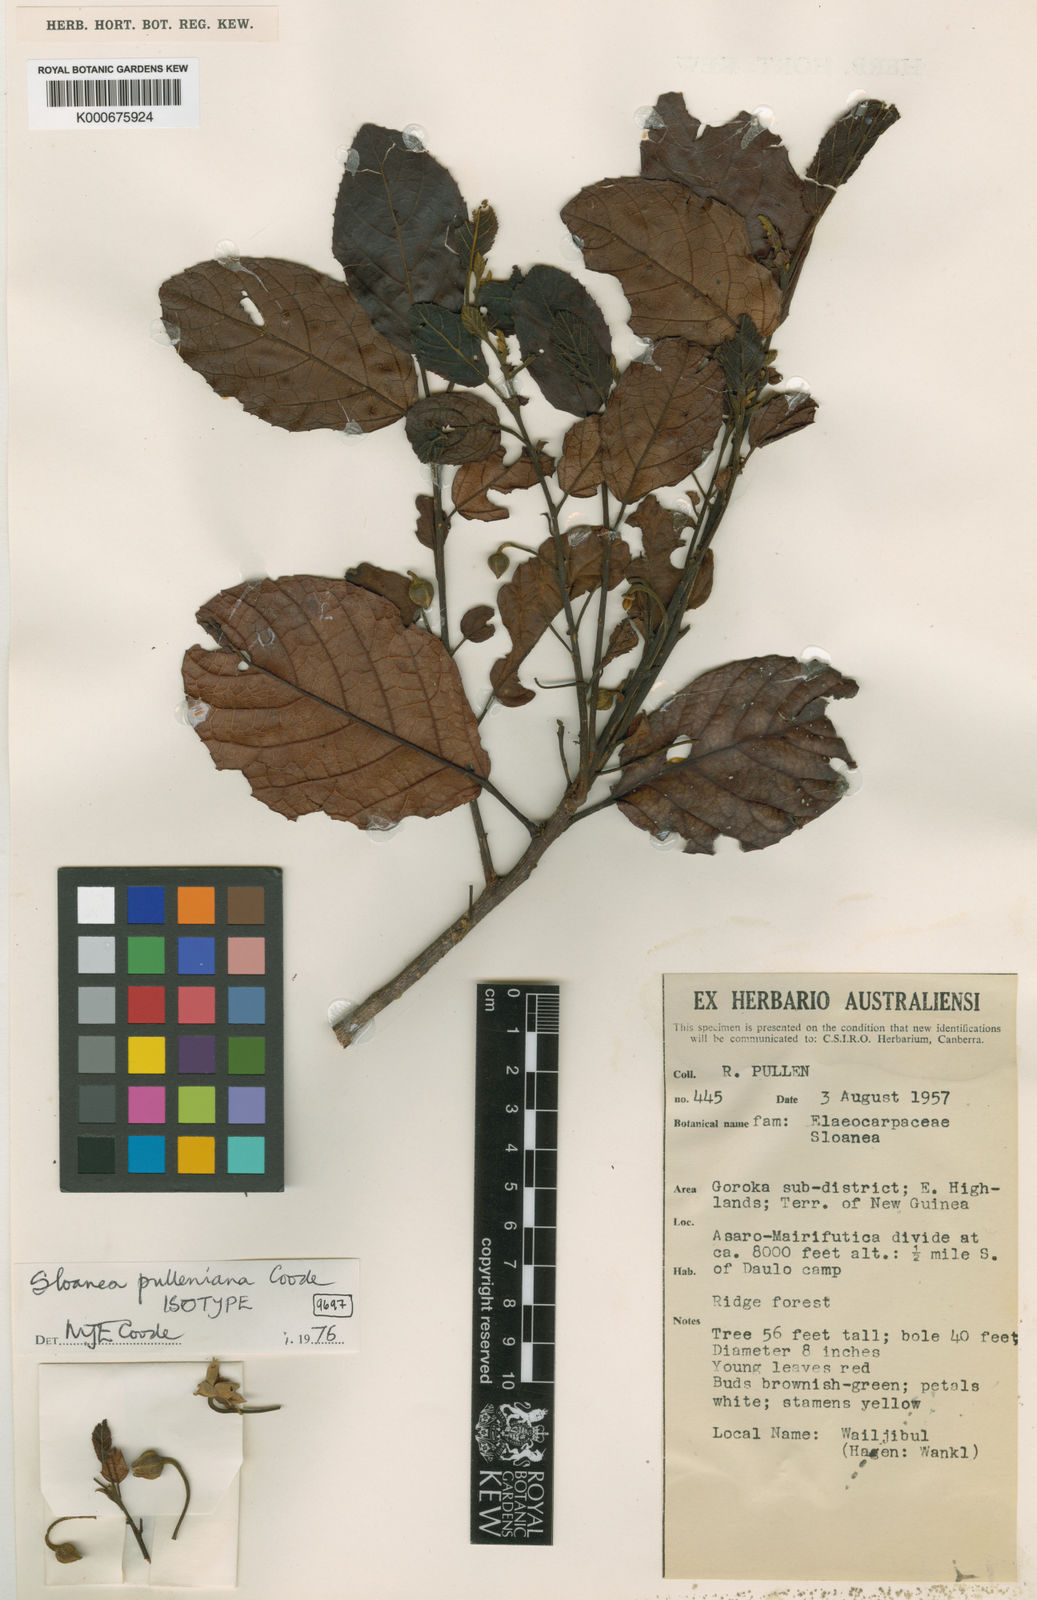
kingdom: Plantae
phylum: Tracheophyta
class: Magnoliopsida
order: Oxalidales
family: Elaeocarpaceae
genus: Sloanea
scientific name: Sloanea pulleniana
